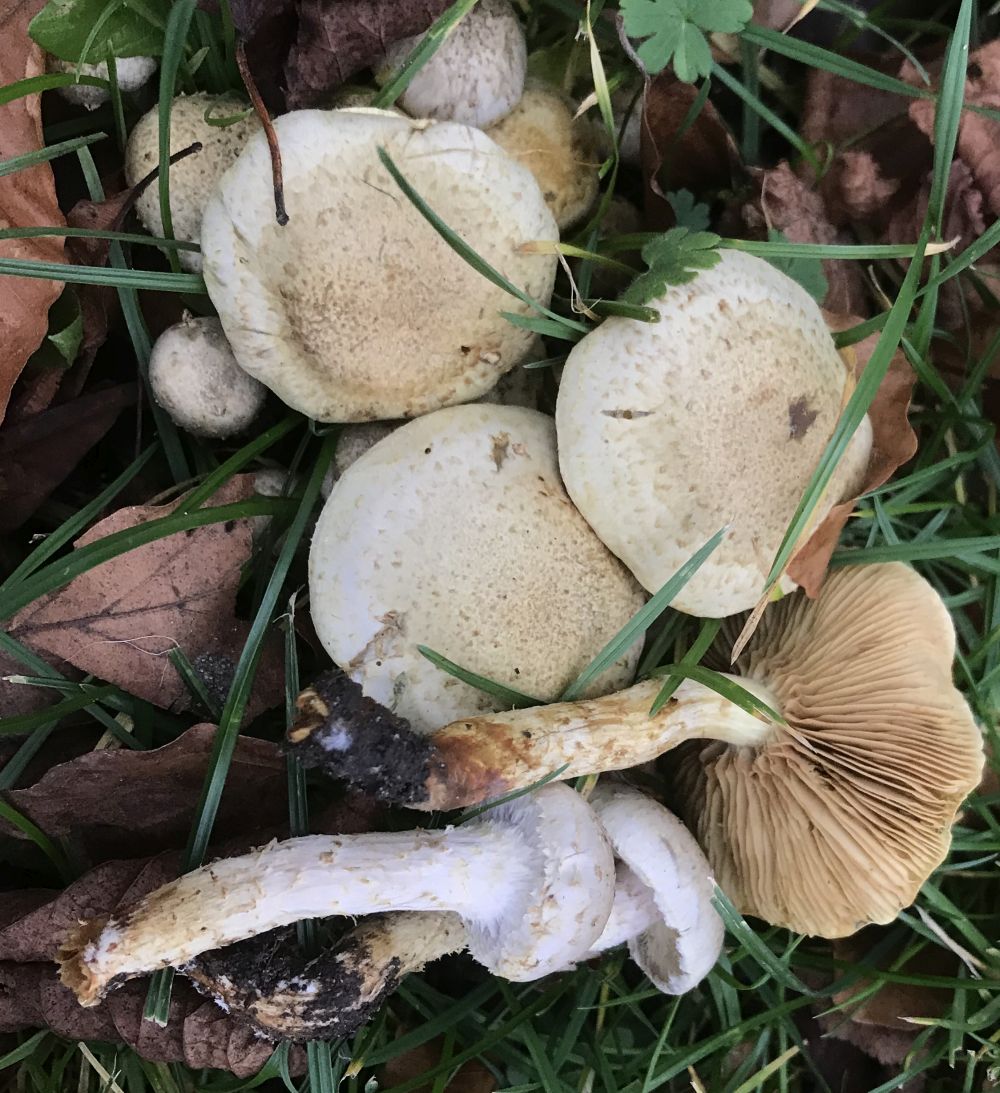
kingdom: Fungi
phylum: Basidiomycota
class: Agaricomycetes
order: Agaricales
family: Strophariaceae
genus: Pholiota
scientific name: Pholiota gummosa
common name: grøngul skælhat
